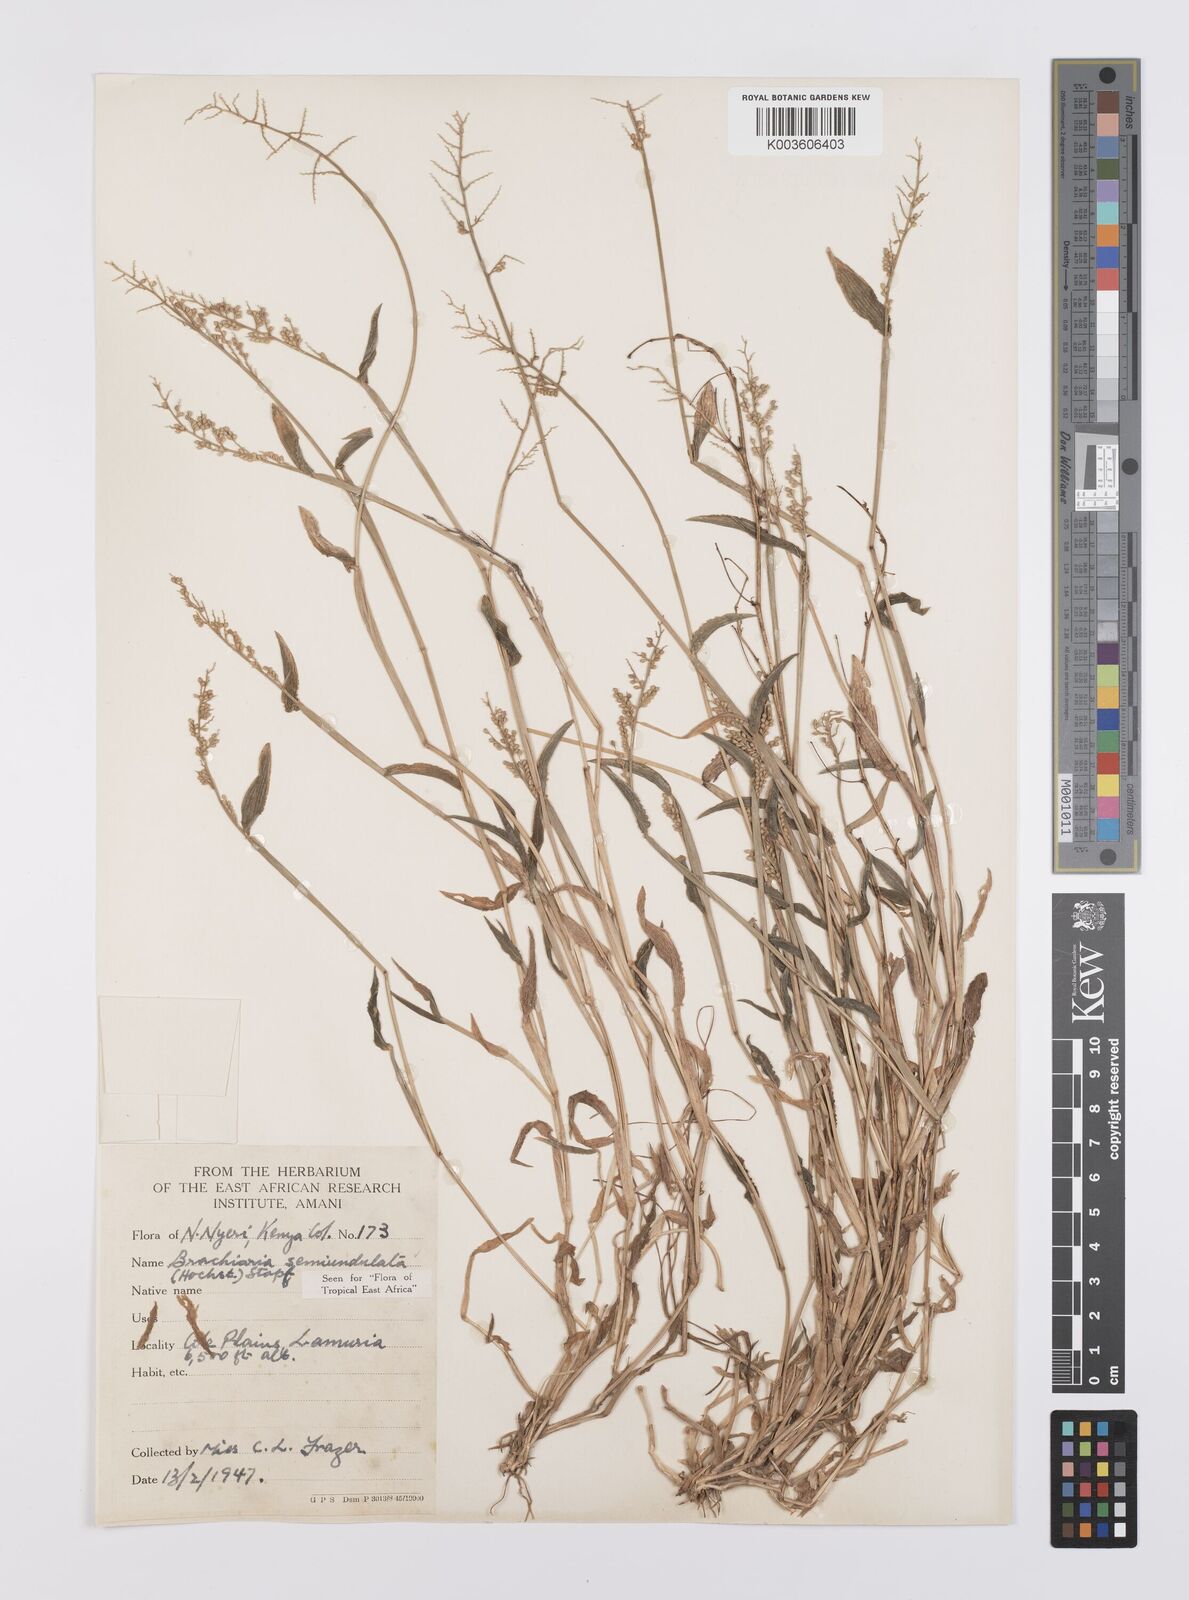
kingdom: Plantae
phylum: Tracheophyta
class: Liliopsida
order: Poales
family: Poaceae
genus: Urochloa
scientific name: Urochloa semiundulata
